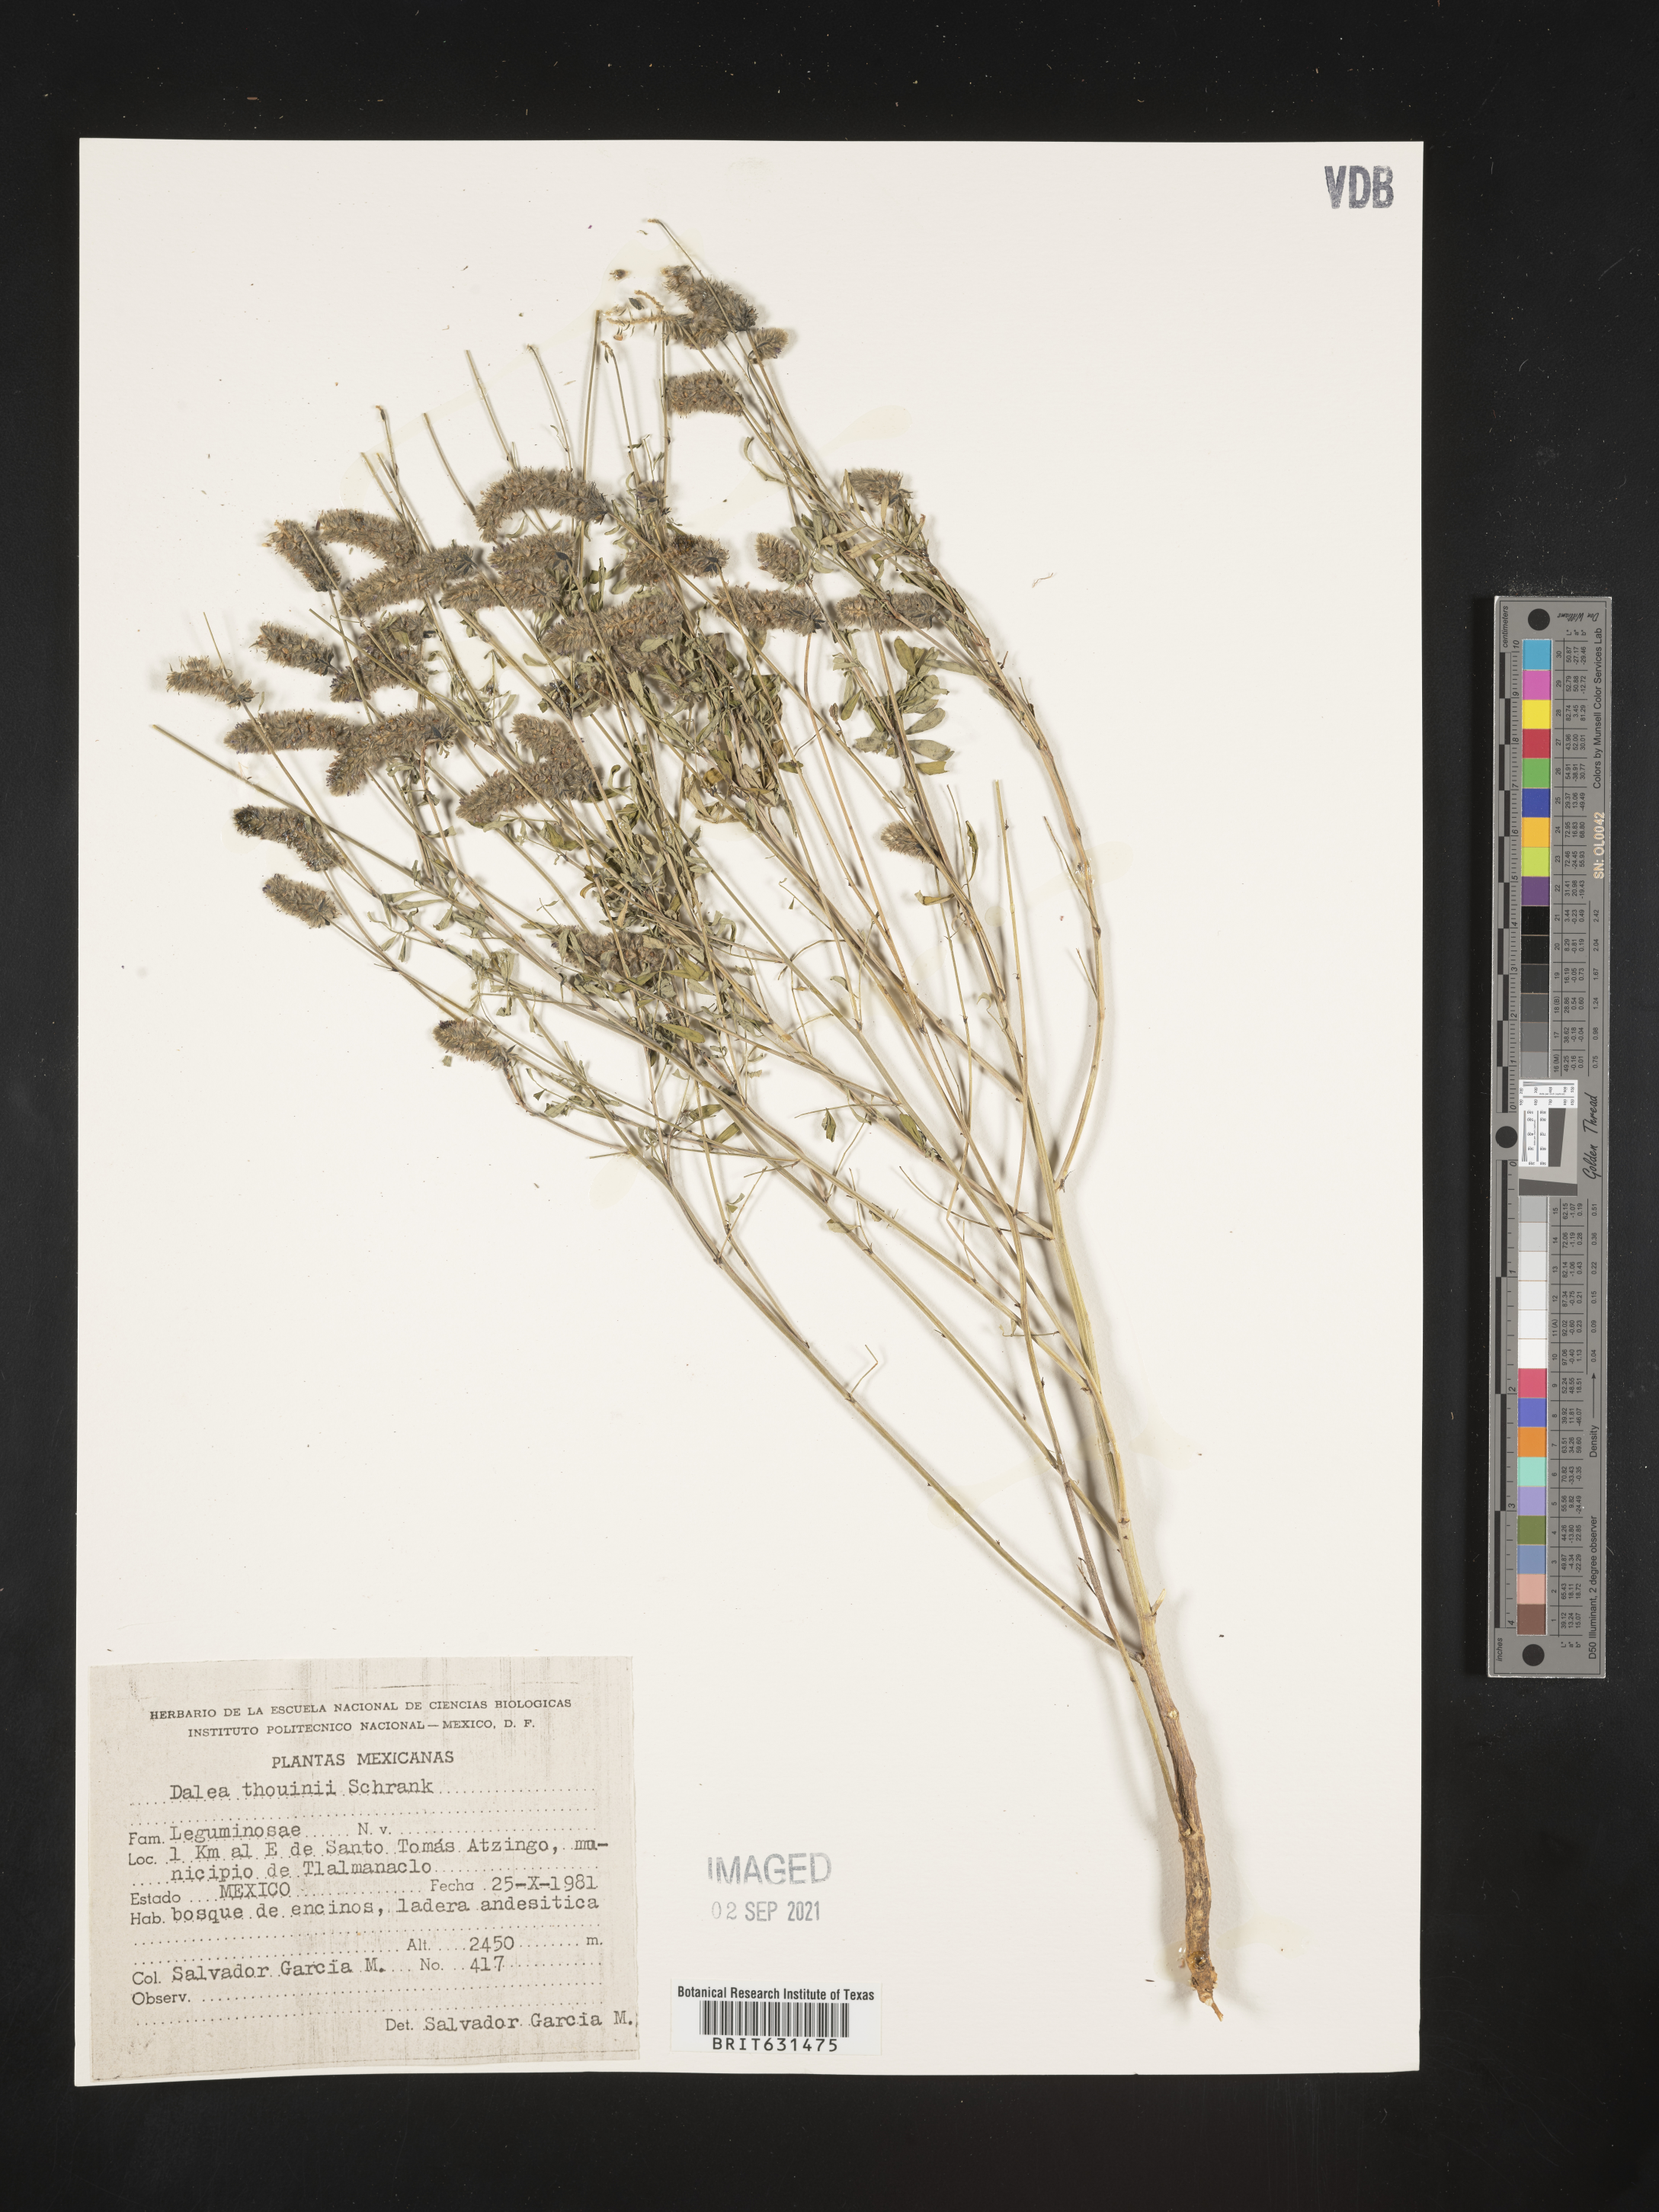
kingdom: Plantae
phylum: Tracheophyta
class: Magnoliopsida
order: Fabales
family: Fabaceae
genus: Dalea
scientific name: Dalea thouinii
